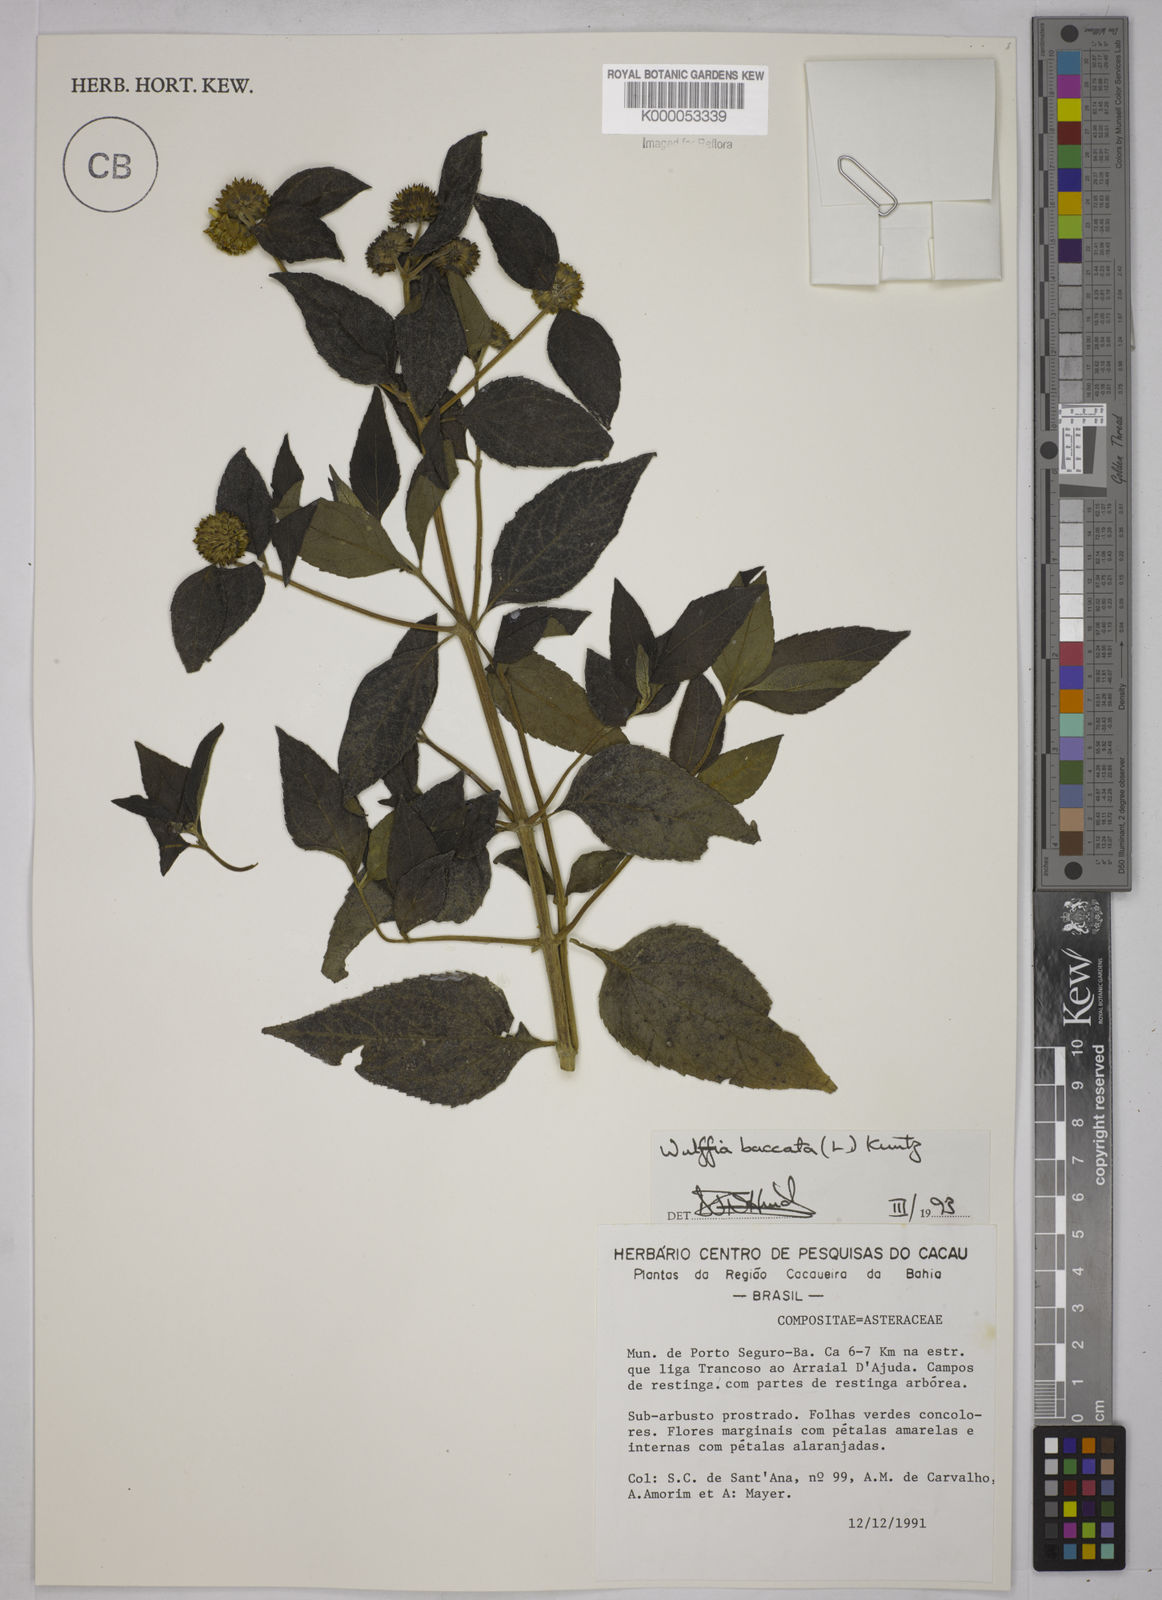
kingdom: Plantae
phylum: Tracheophyta
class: Magnoliopsida
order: Asterales
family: Asteraceae
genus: Tilesia
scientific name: Tilesia baccata
